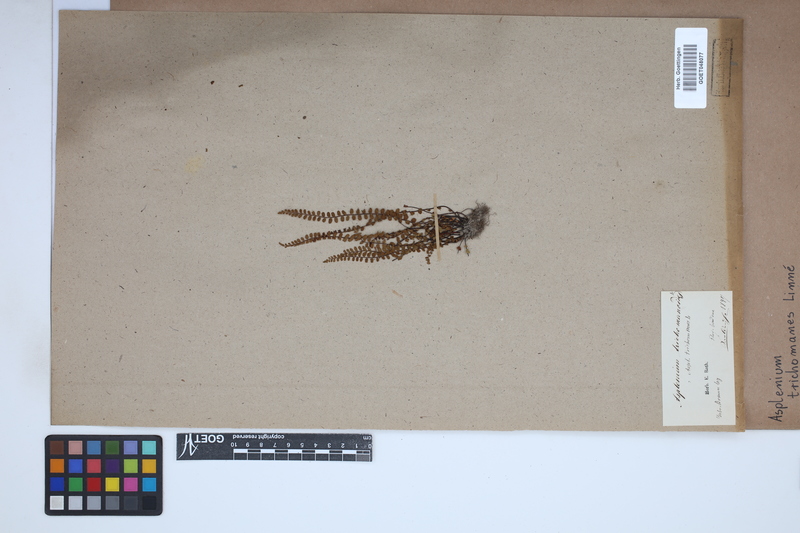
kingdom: Plantae
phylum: Tracheophyta
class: Polypodiopsida
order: Polypodiales
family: Aspleniaceae
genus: Asplenium
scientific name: Asplenium trichomanes
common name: Maidenhair spleenwort
